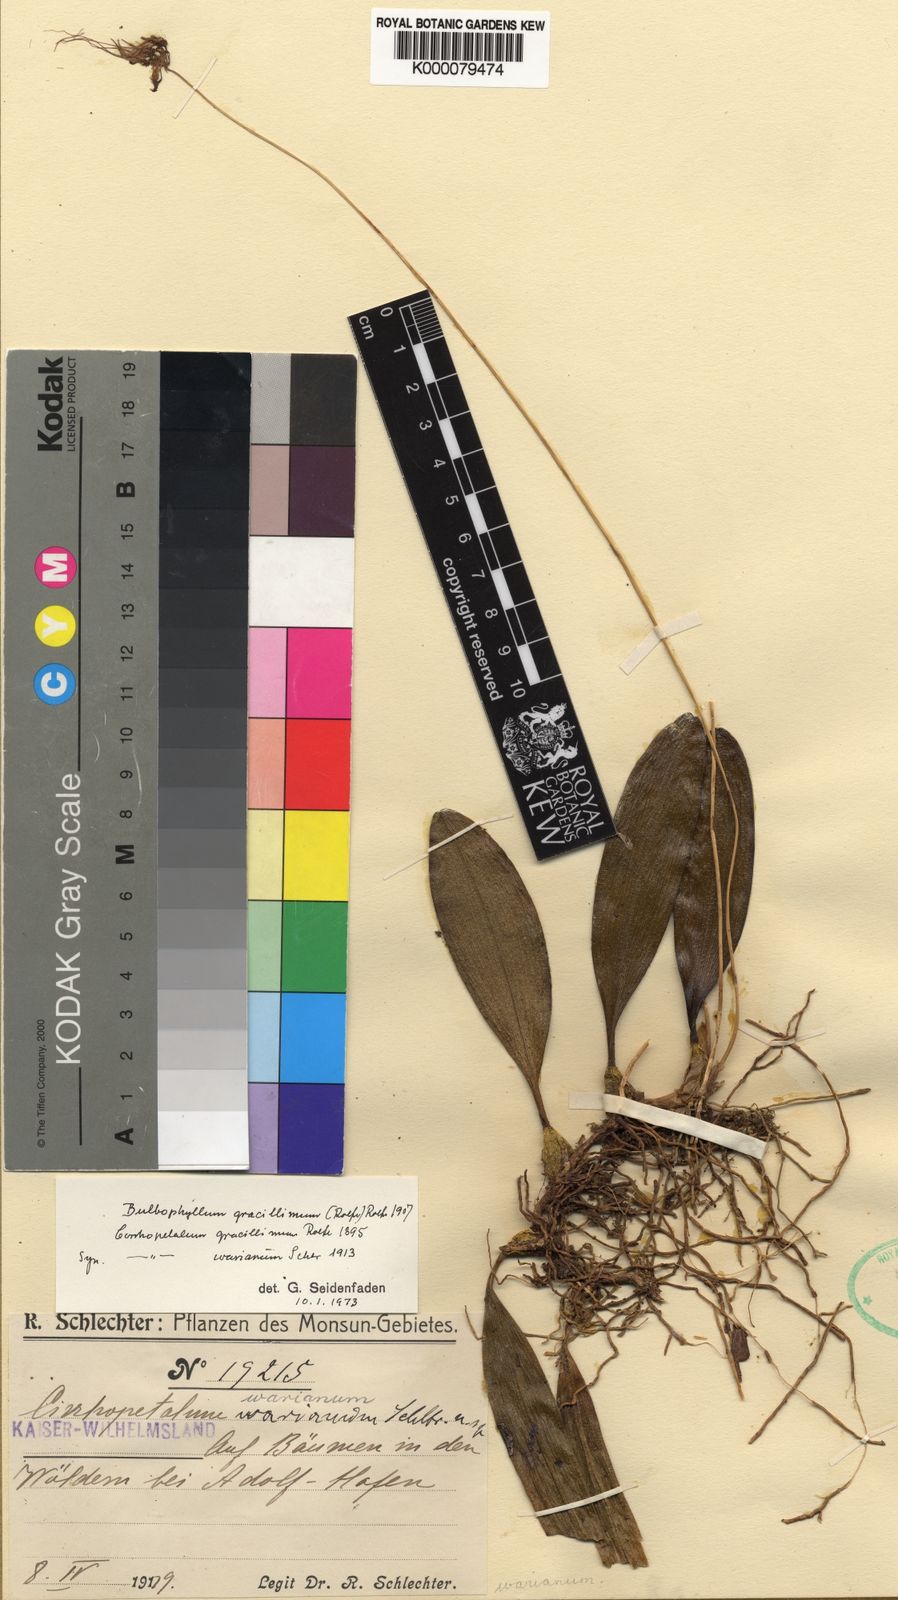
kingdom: Plantae
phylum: Tracheophyta
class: Liliopsida
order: Asparagales
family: Orchidaceae
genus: Bulbophyllum
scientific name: Bulbophyllum gracillimum
